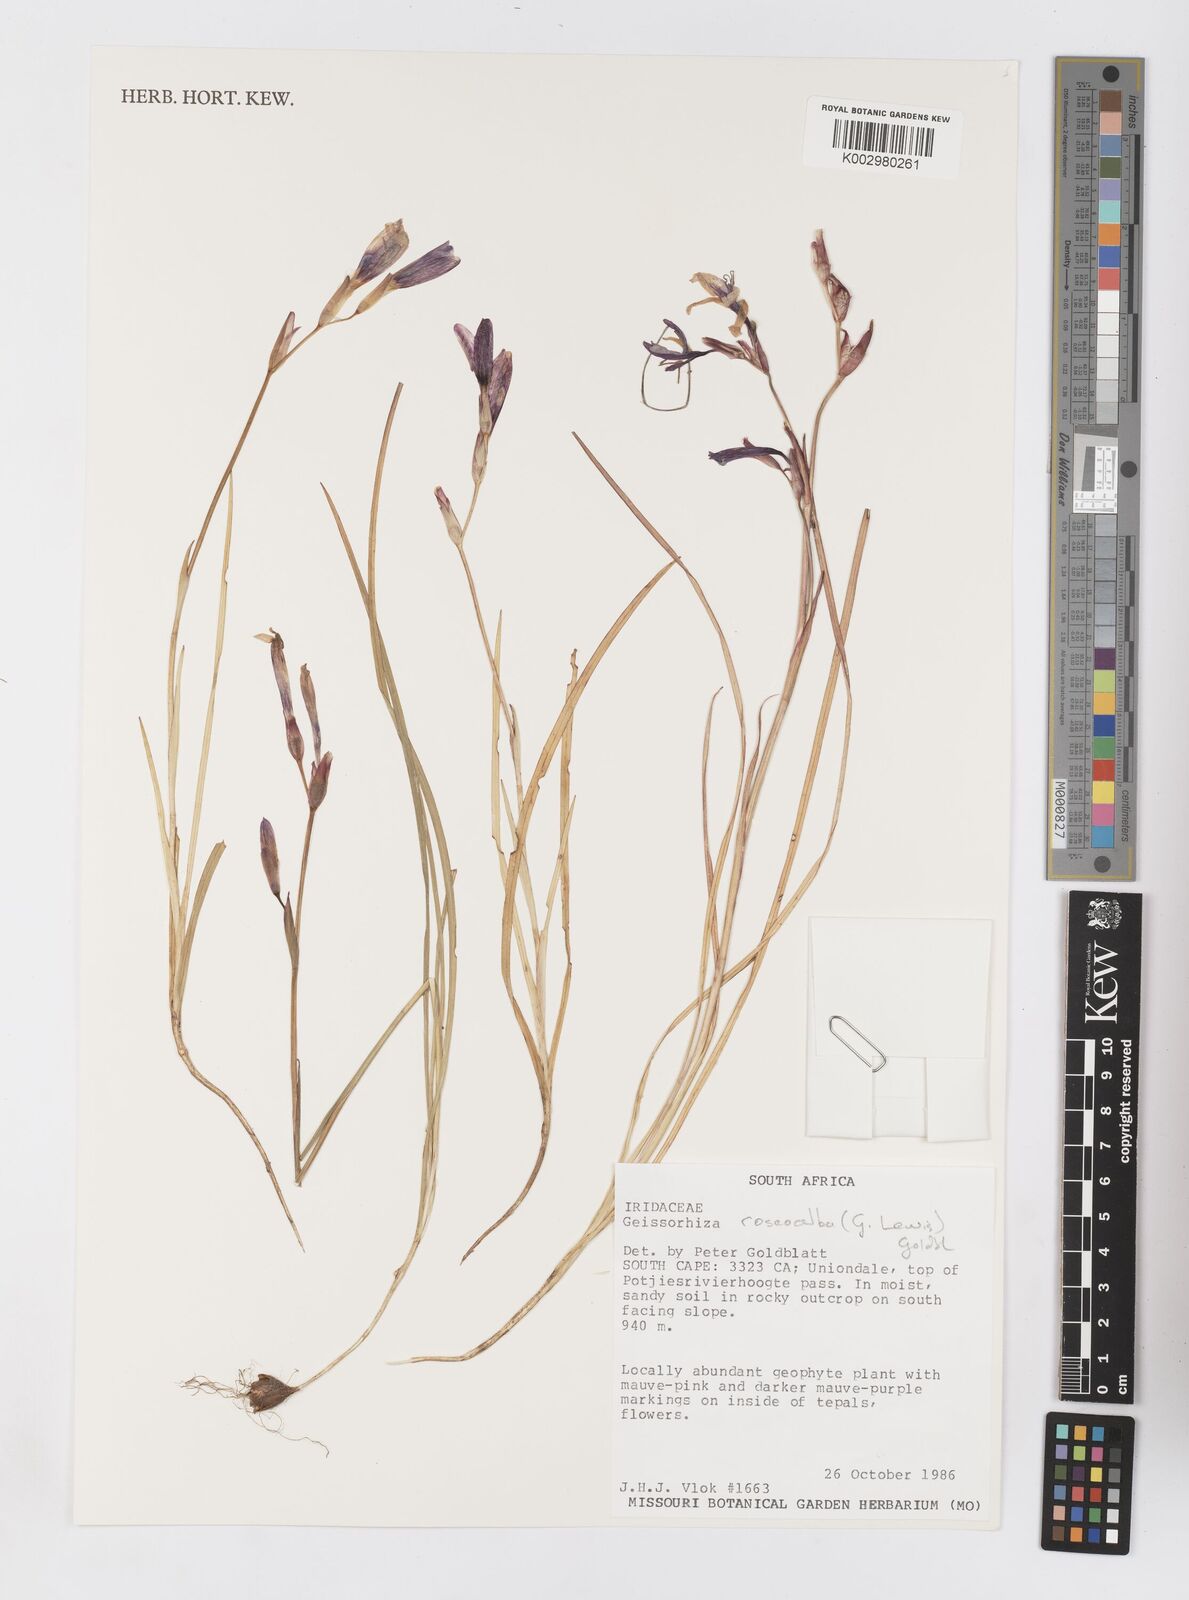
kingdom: Plantae
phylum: Tracheophyta
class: Liliopsida
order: Asparagales
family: Iridaceae
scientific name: Iridaceae
